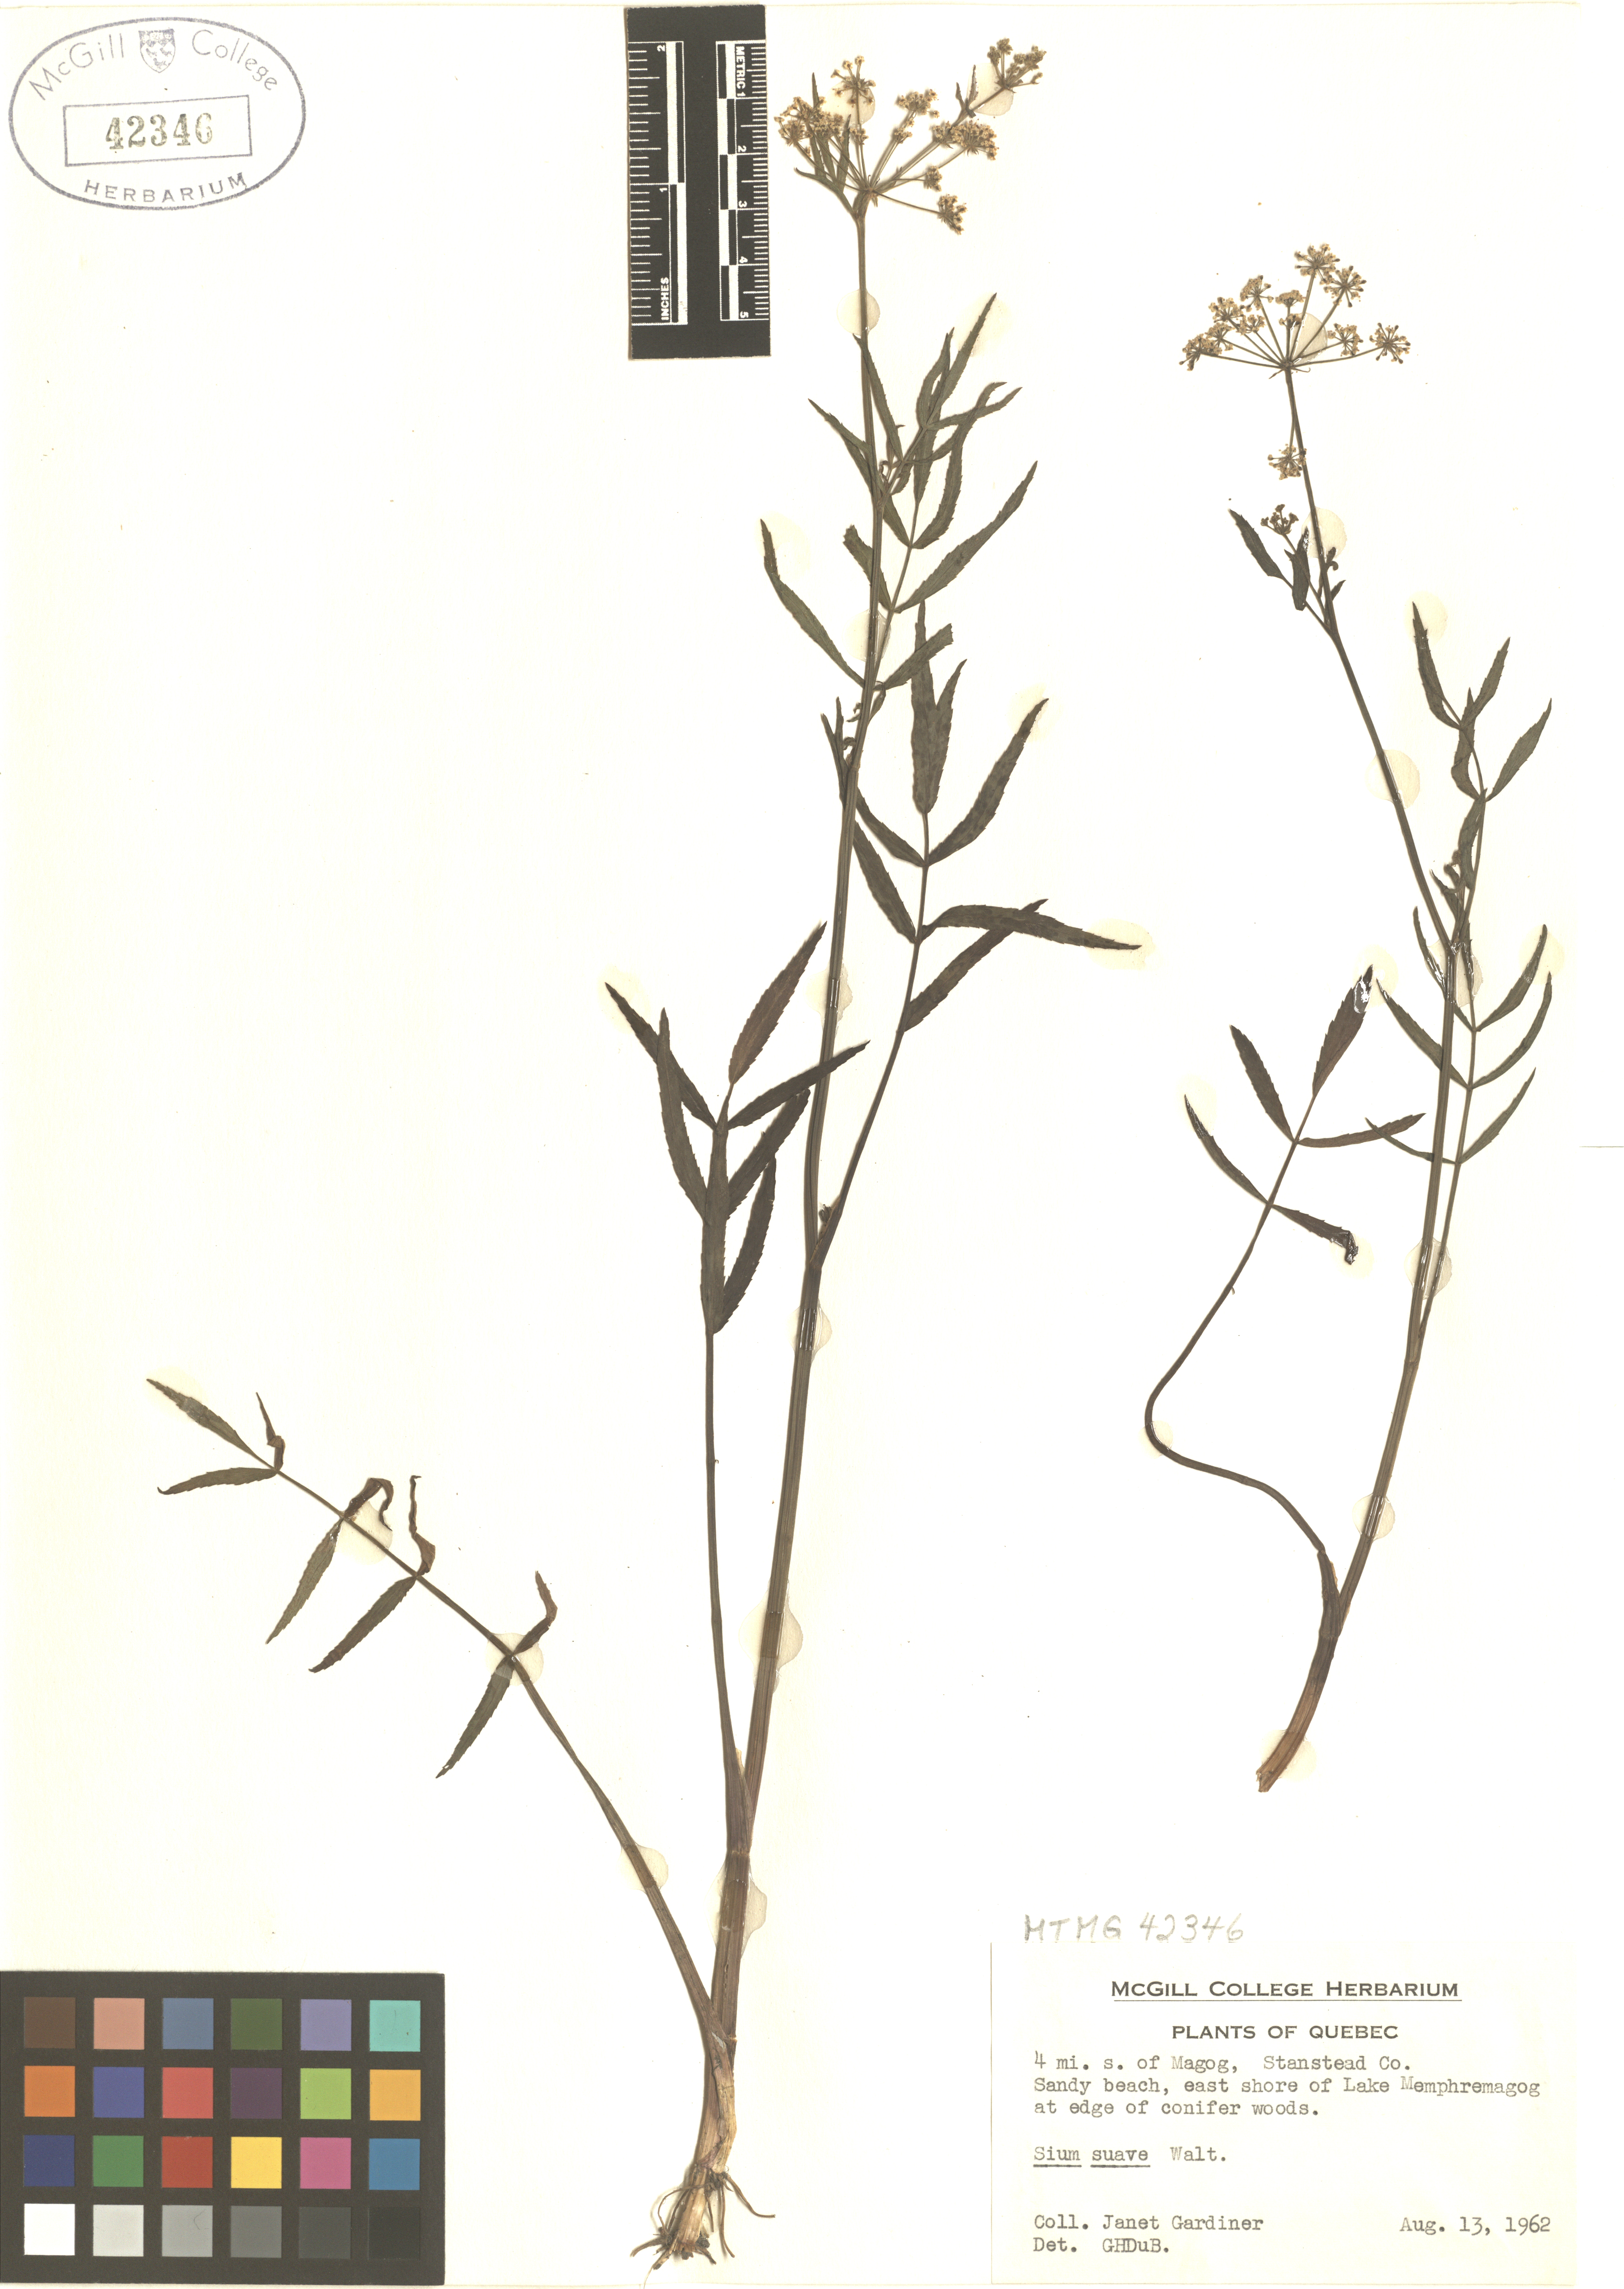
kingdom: Plantae
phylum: Tracheophyta
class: Magnoliopsida
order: Apiales
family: Apiaceae
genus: Sium
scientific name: Sium suave
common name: Hemlock water-parsnip
